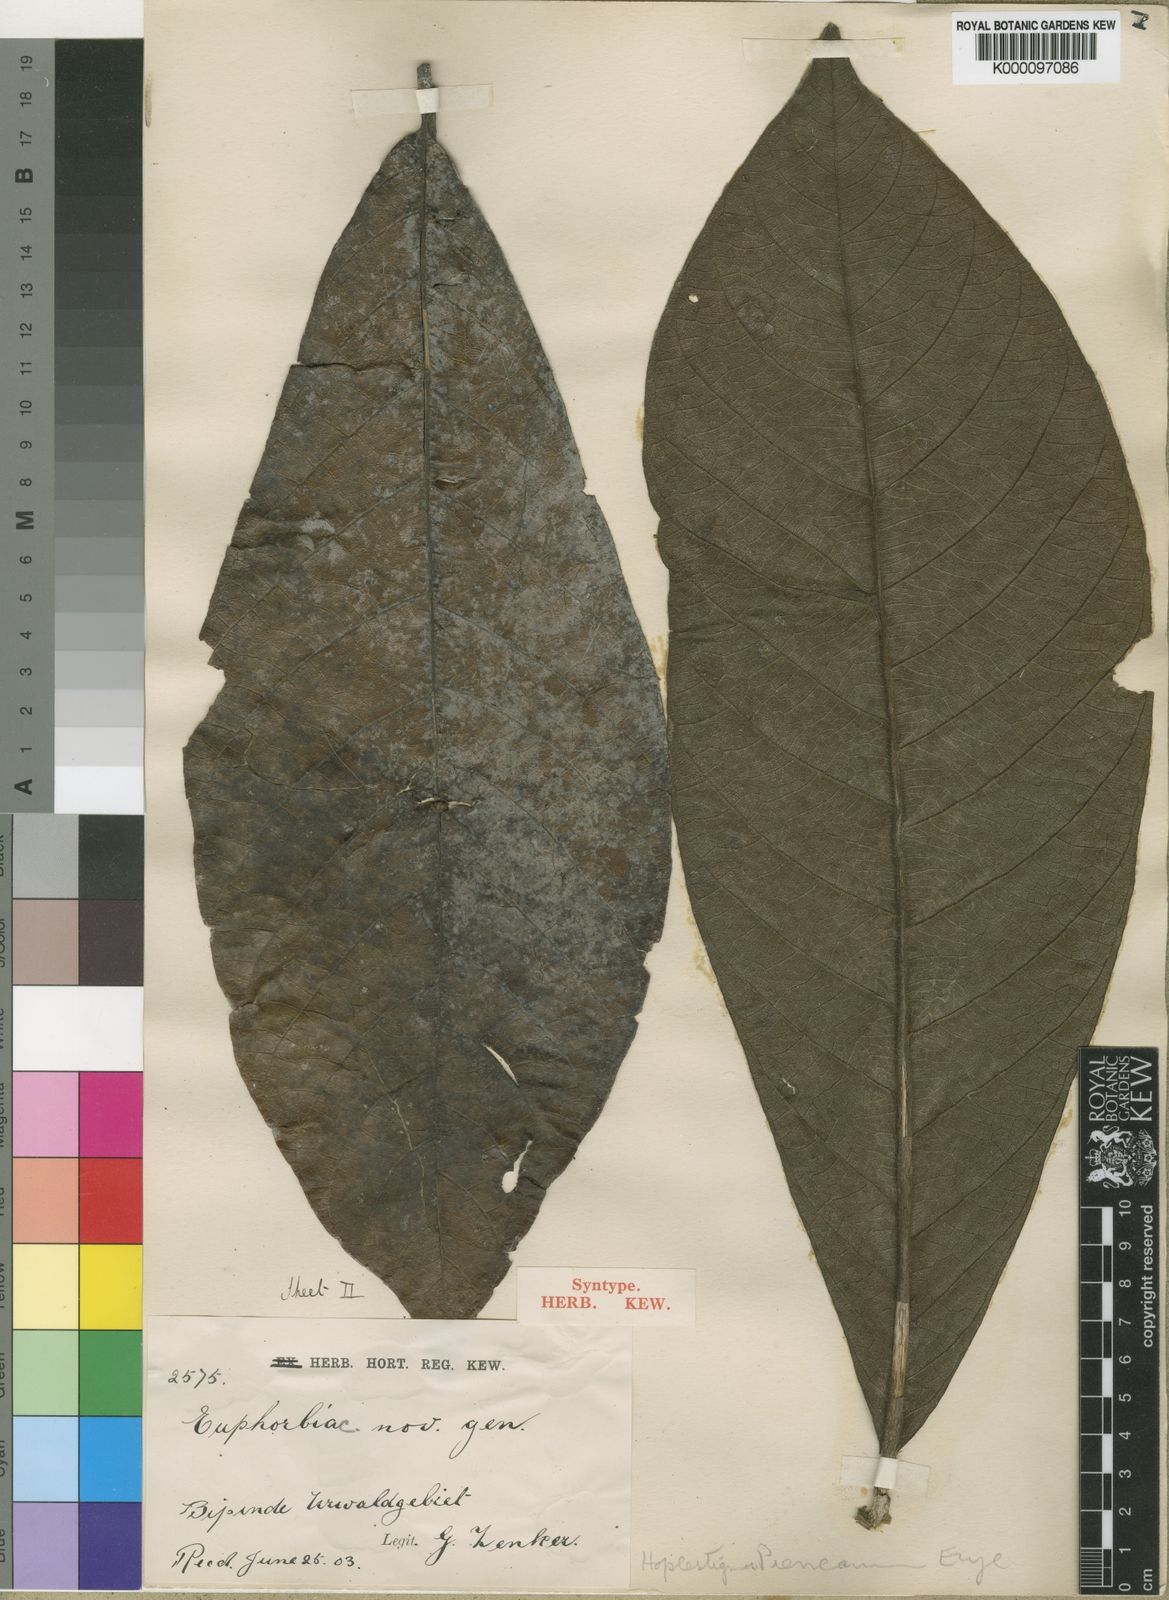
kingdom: Plantae
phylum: Tracheophyta
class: Magnoliopsida
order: Boraginales
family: Hoplestigmataceae
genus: Hoplestigma
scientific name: Hoplestigma pierreanum
